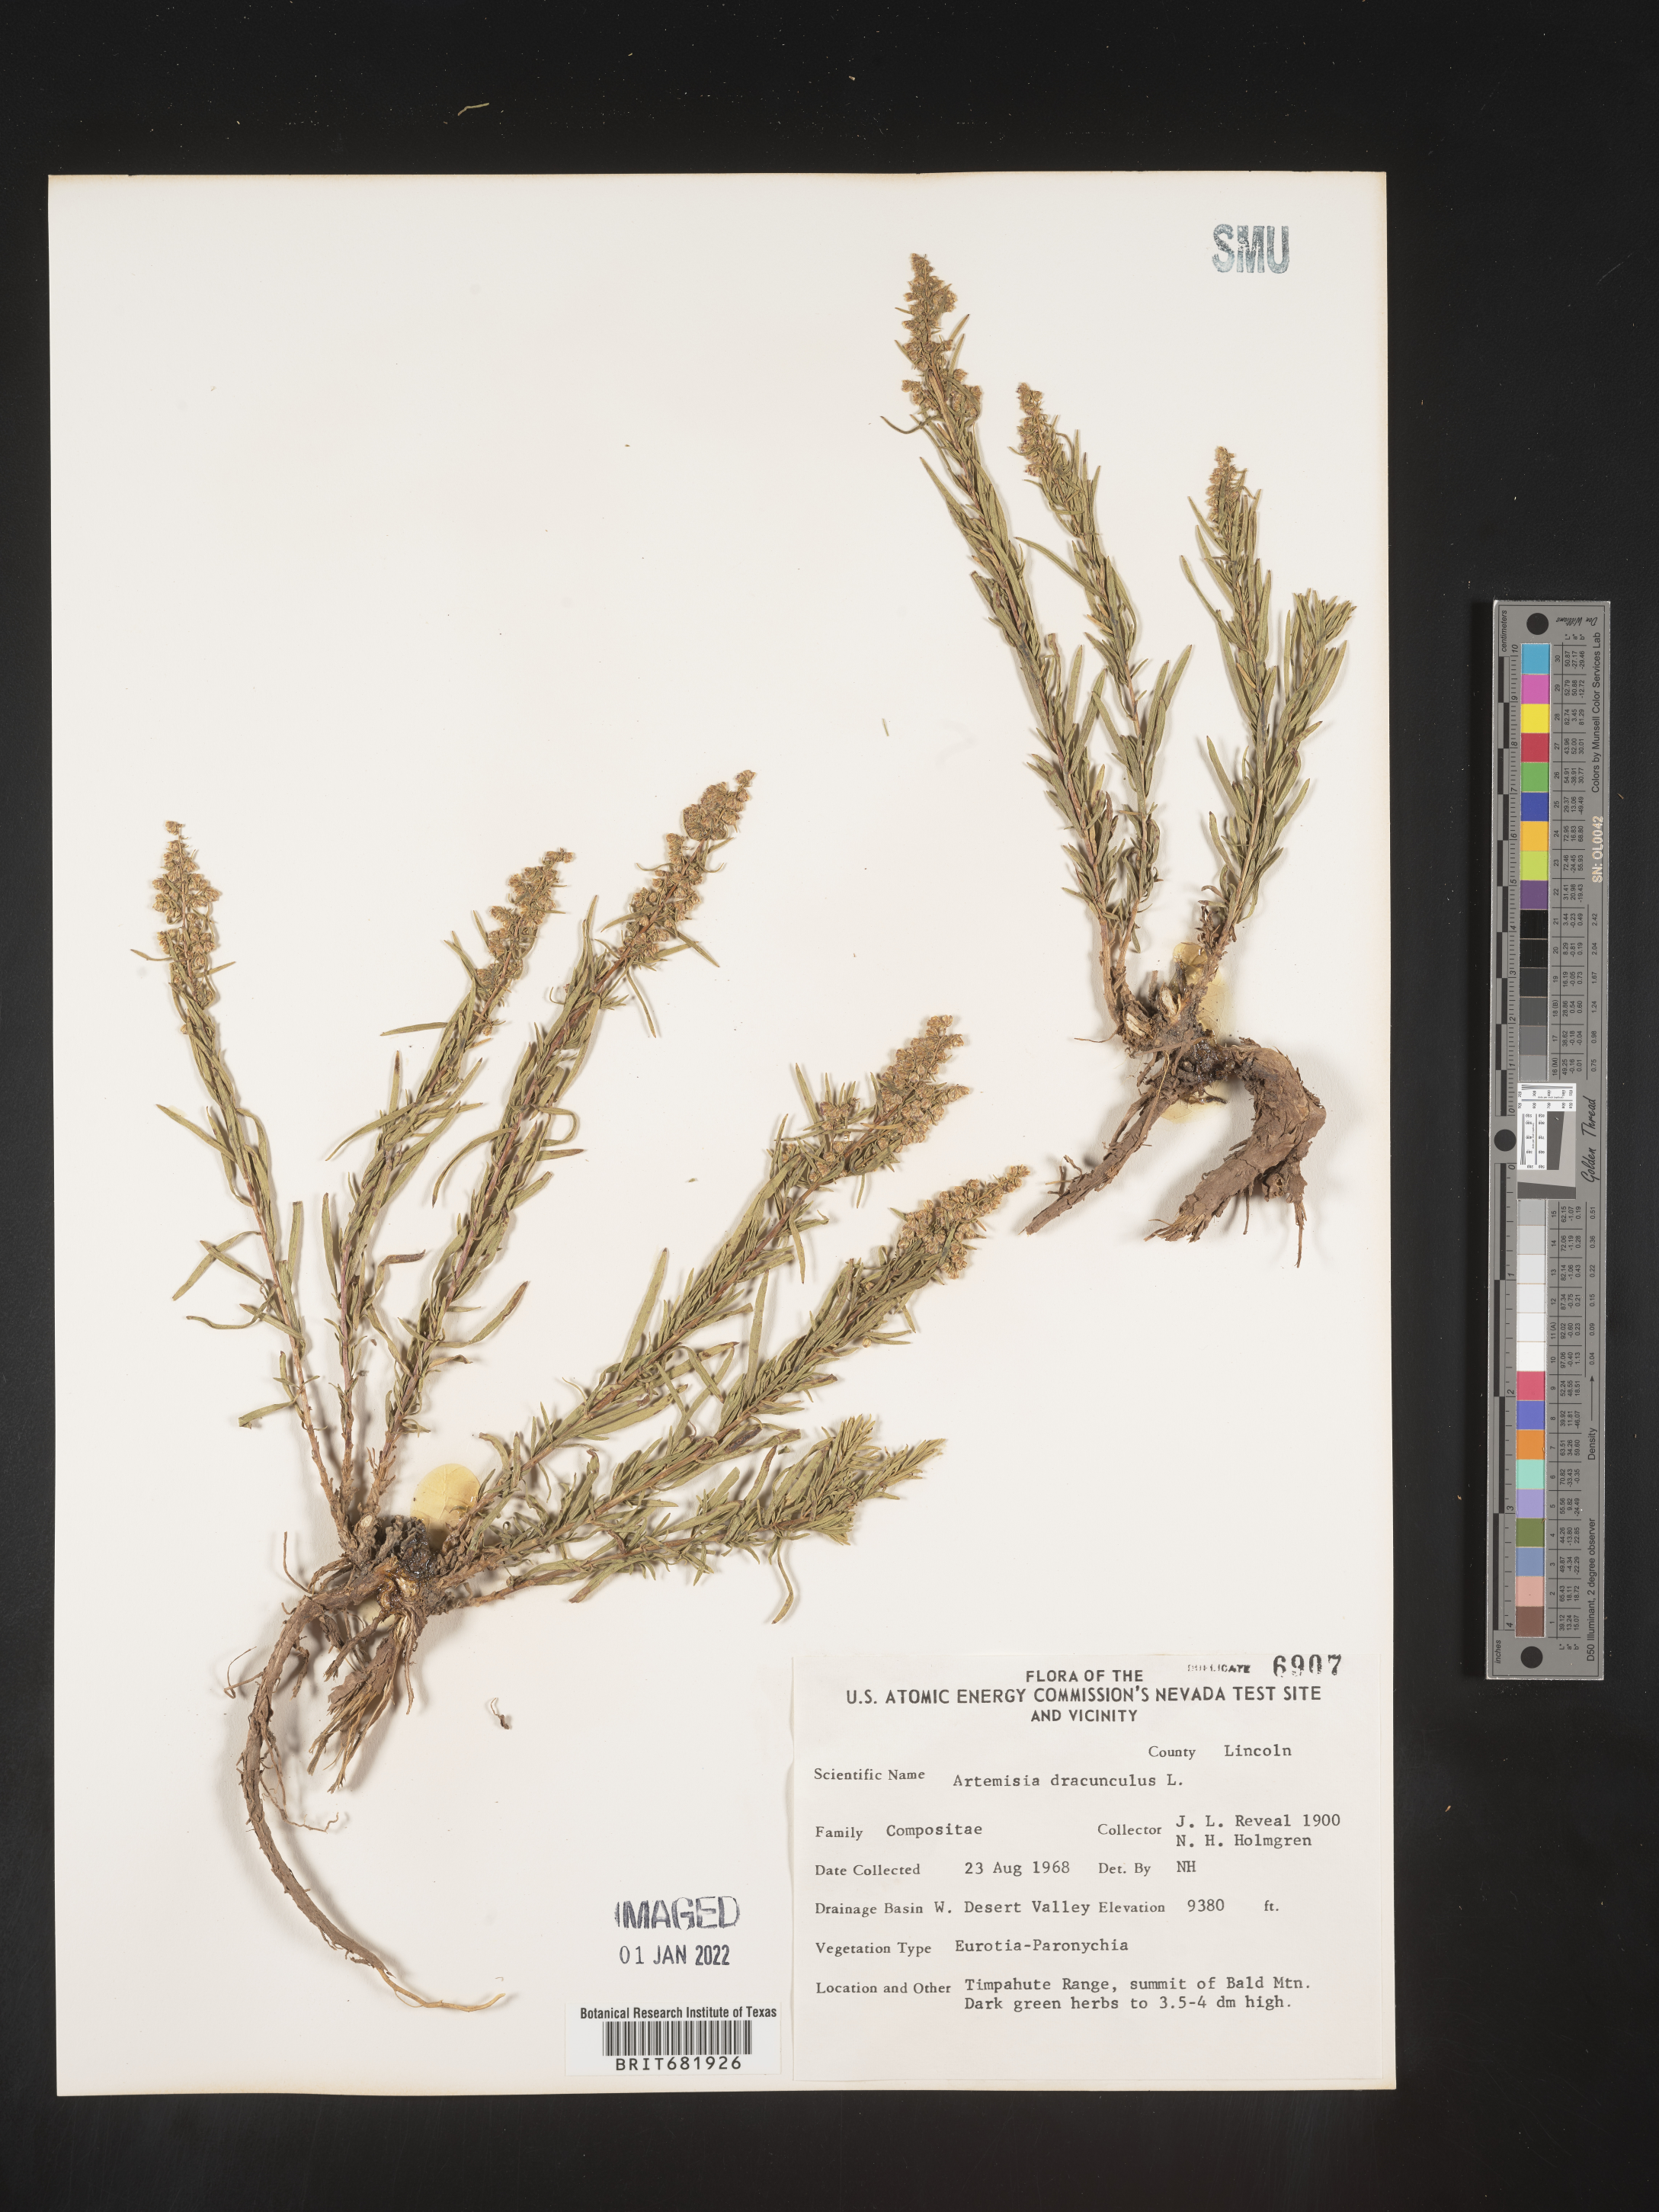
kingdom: Plantae
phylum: Tracheophyta
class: Magnoliopsida
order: Asterales
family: Asteraceae
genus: Artemisia
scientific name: Artemisia dracunculus
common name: Tarragon
